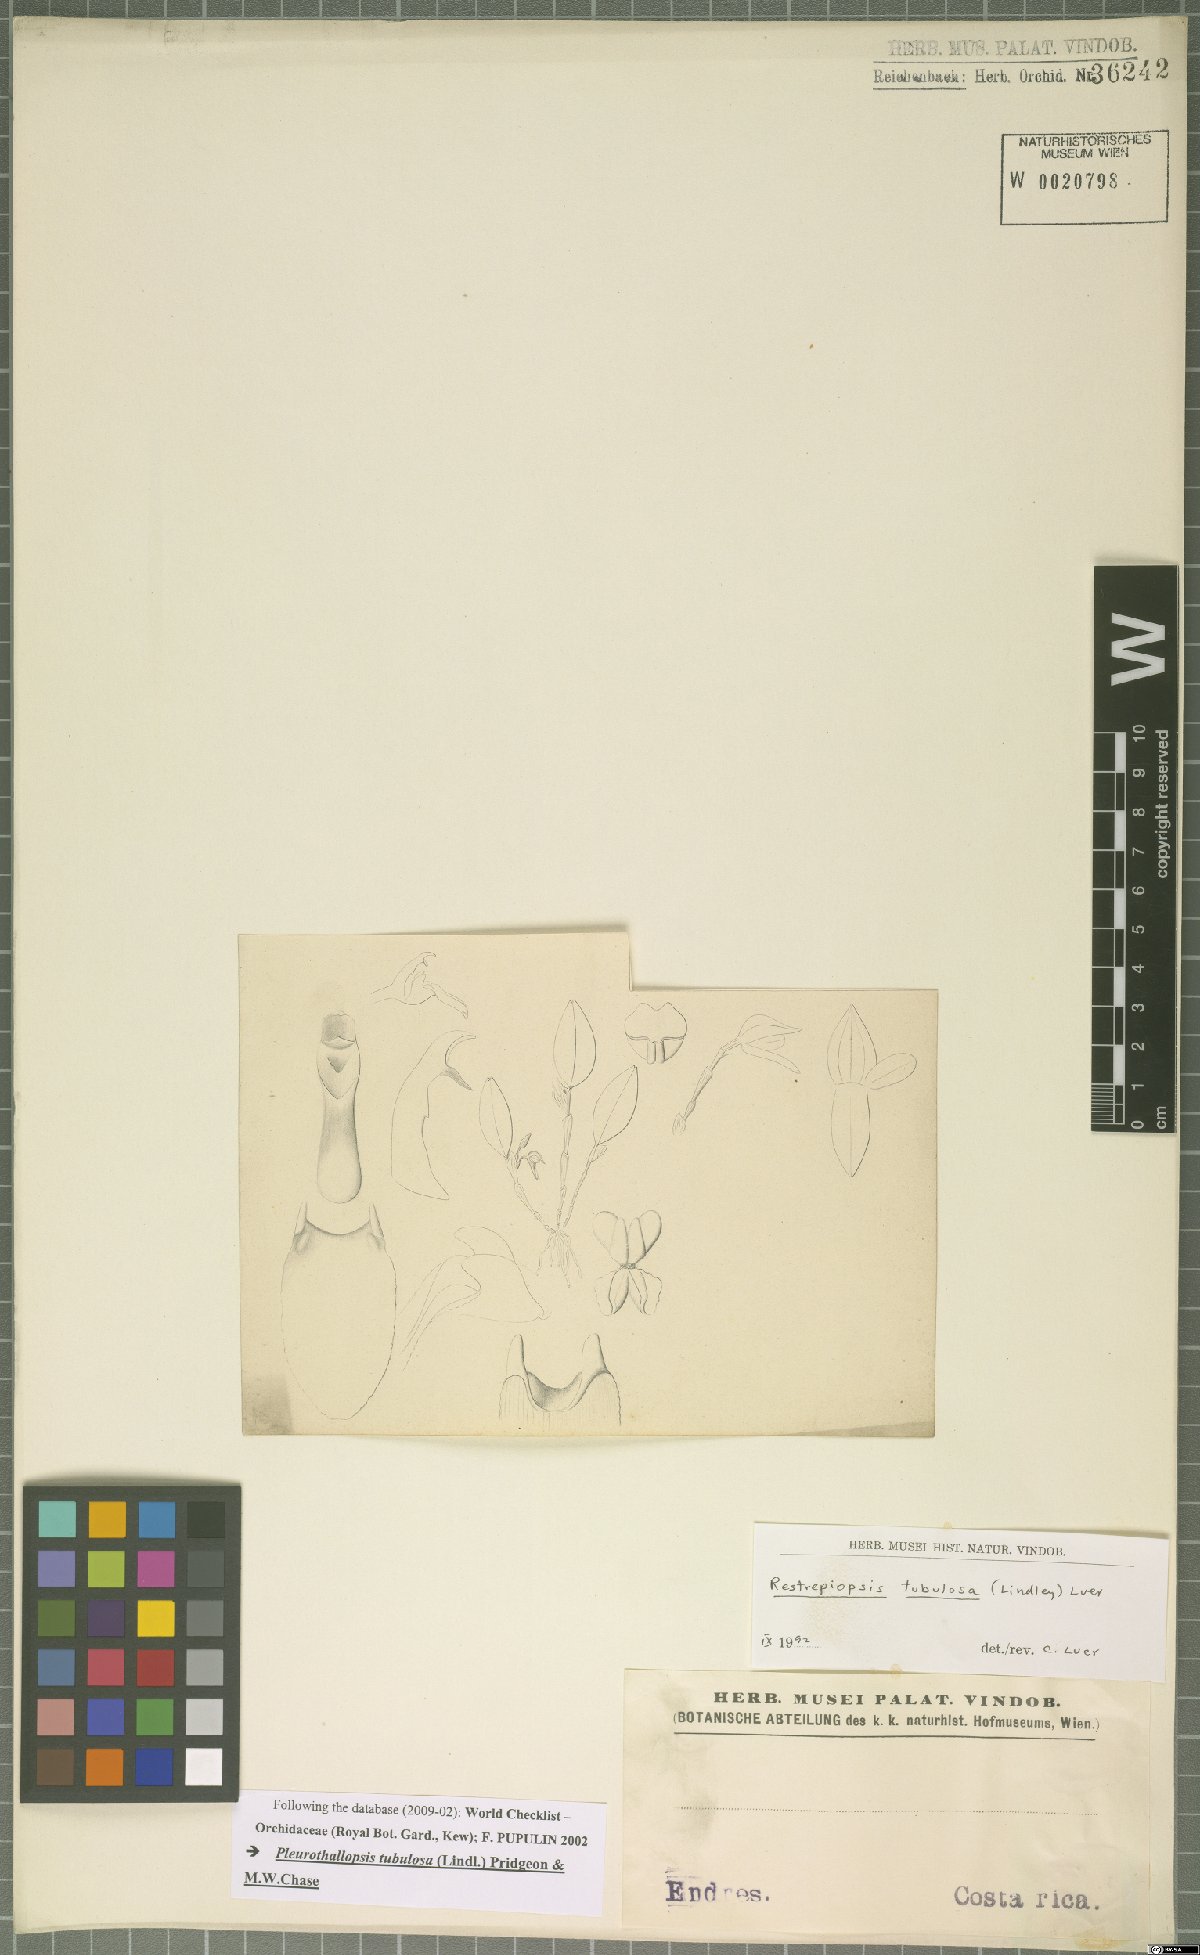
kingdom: Plantae
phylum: Tracheophyta
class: Liliopsida
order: Asparagales
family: Orchidaceae
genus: Pleurothallopsis
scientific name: Pleurothallopsis tubulosa
